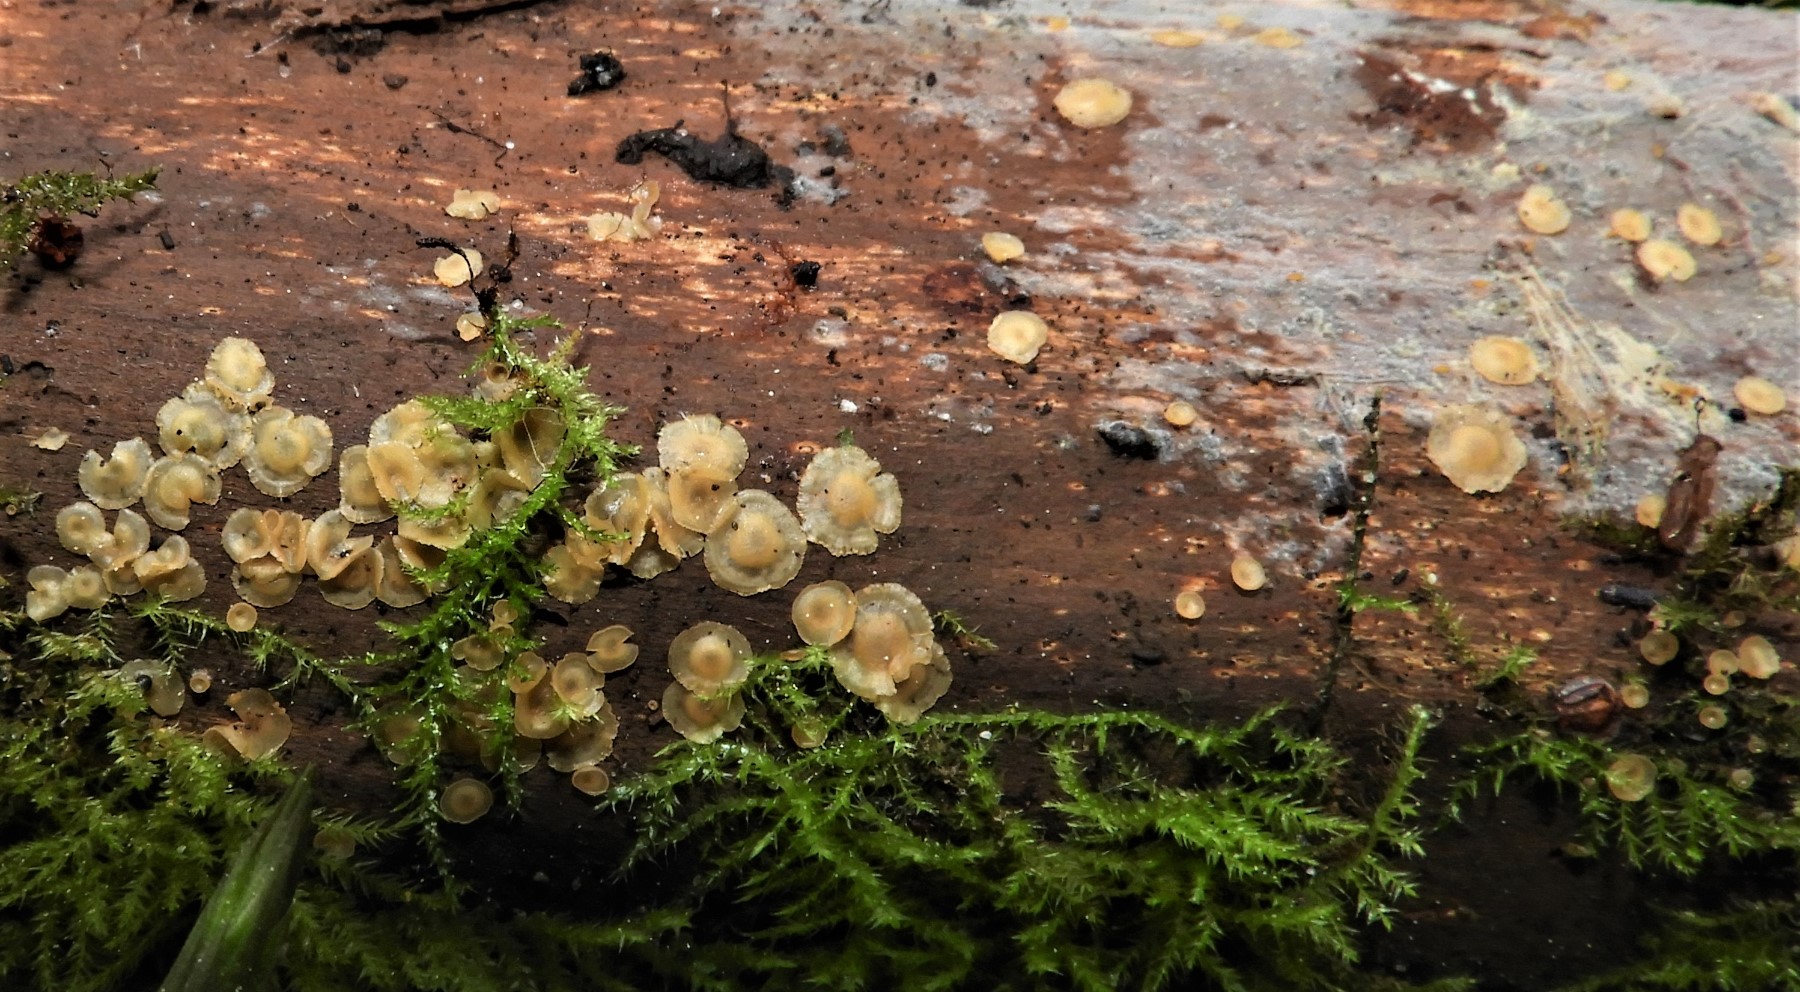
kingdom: Fungi
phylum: Ascomycota
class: Orbiliomycetes
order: Orbiliales
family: Orbiliaceae
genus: Hyalorbilia
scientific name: Hyalorbilia
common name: voksskive
